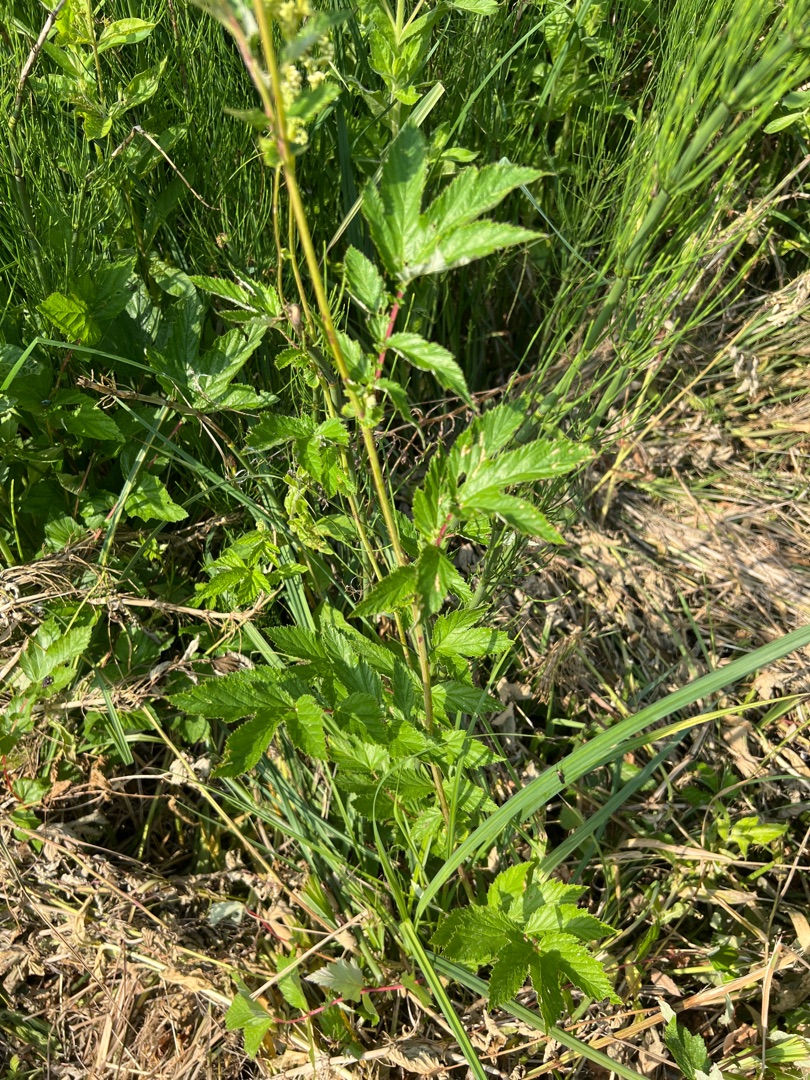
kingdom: Plantae
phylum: Tracheophyta
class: Magnoliopsida
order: Rosales
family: Rosaceae
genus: Filipendula
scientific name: Filipendula ulmaria
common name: Almindelig mjødurt
